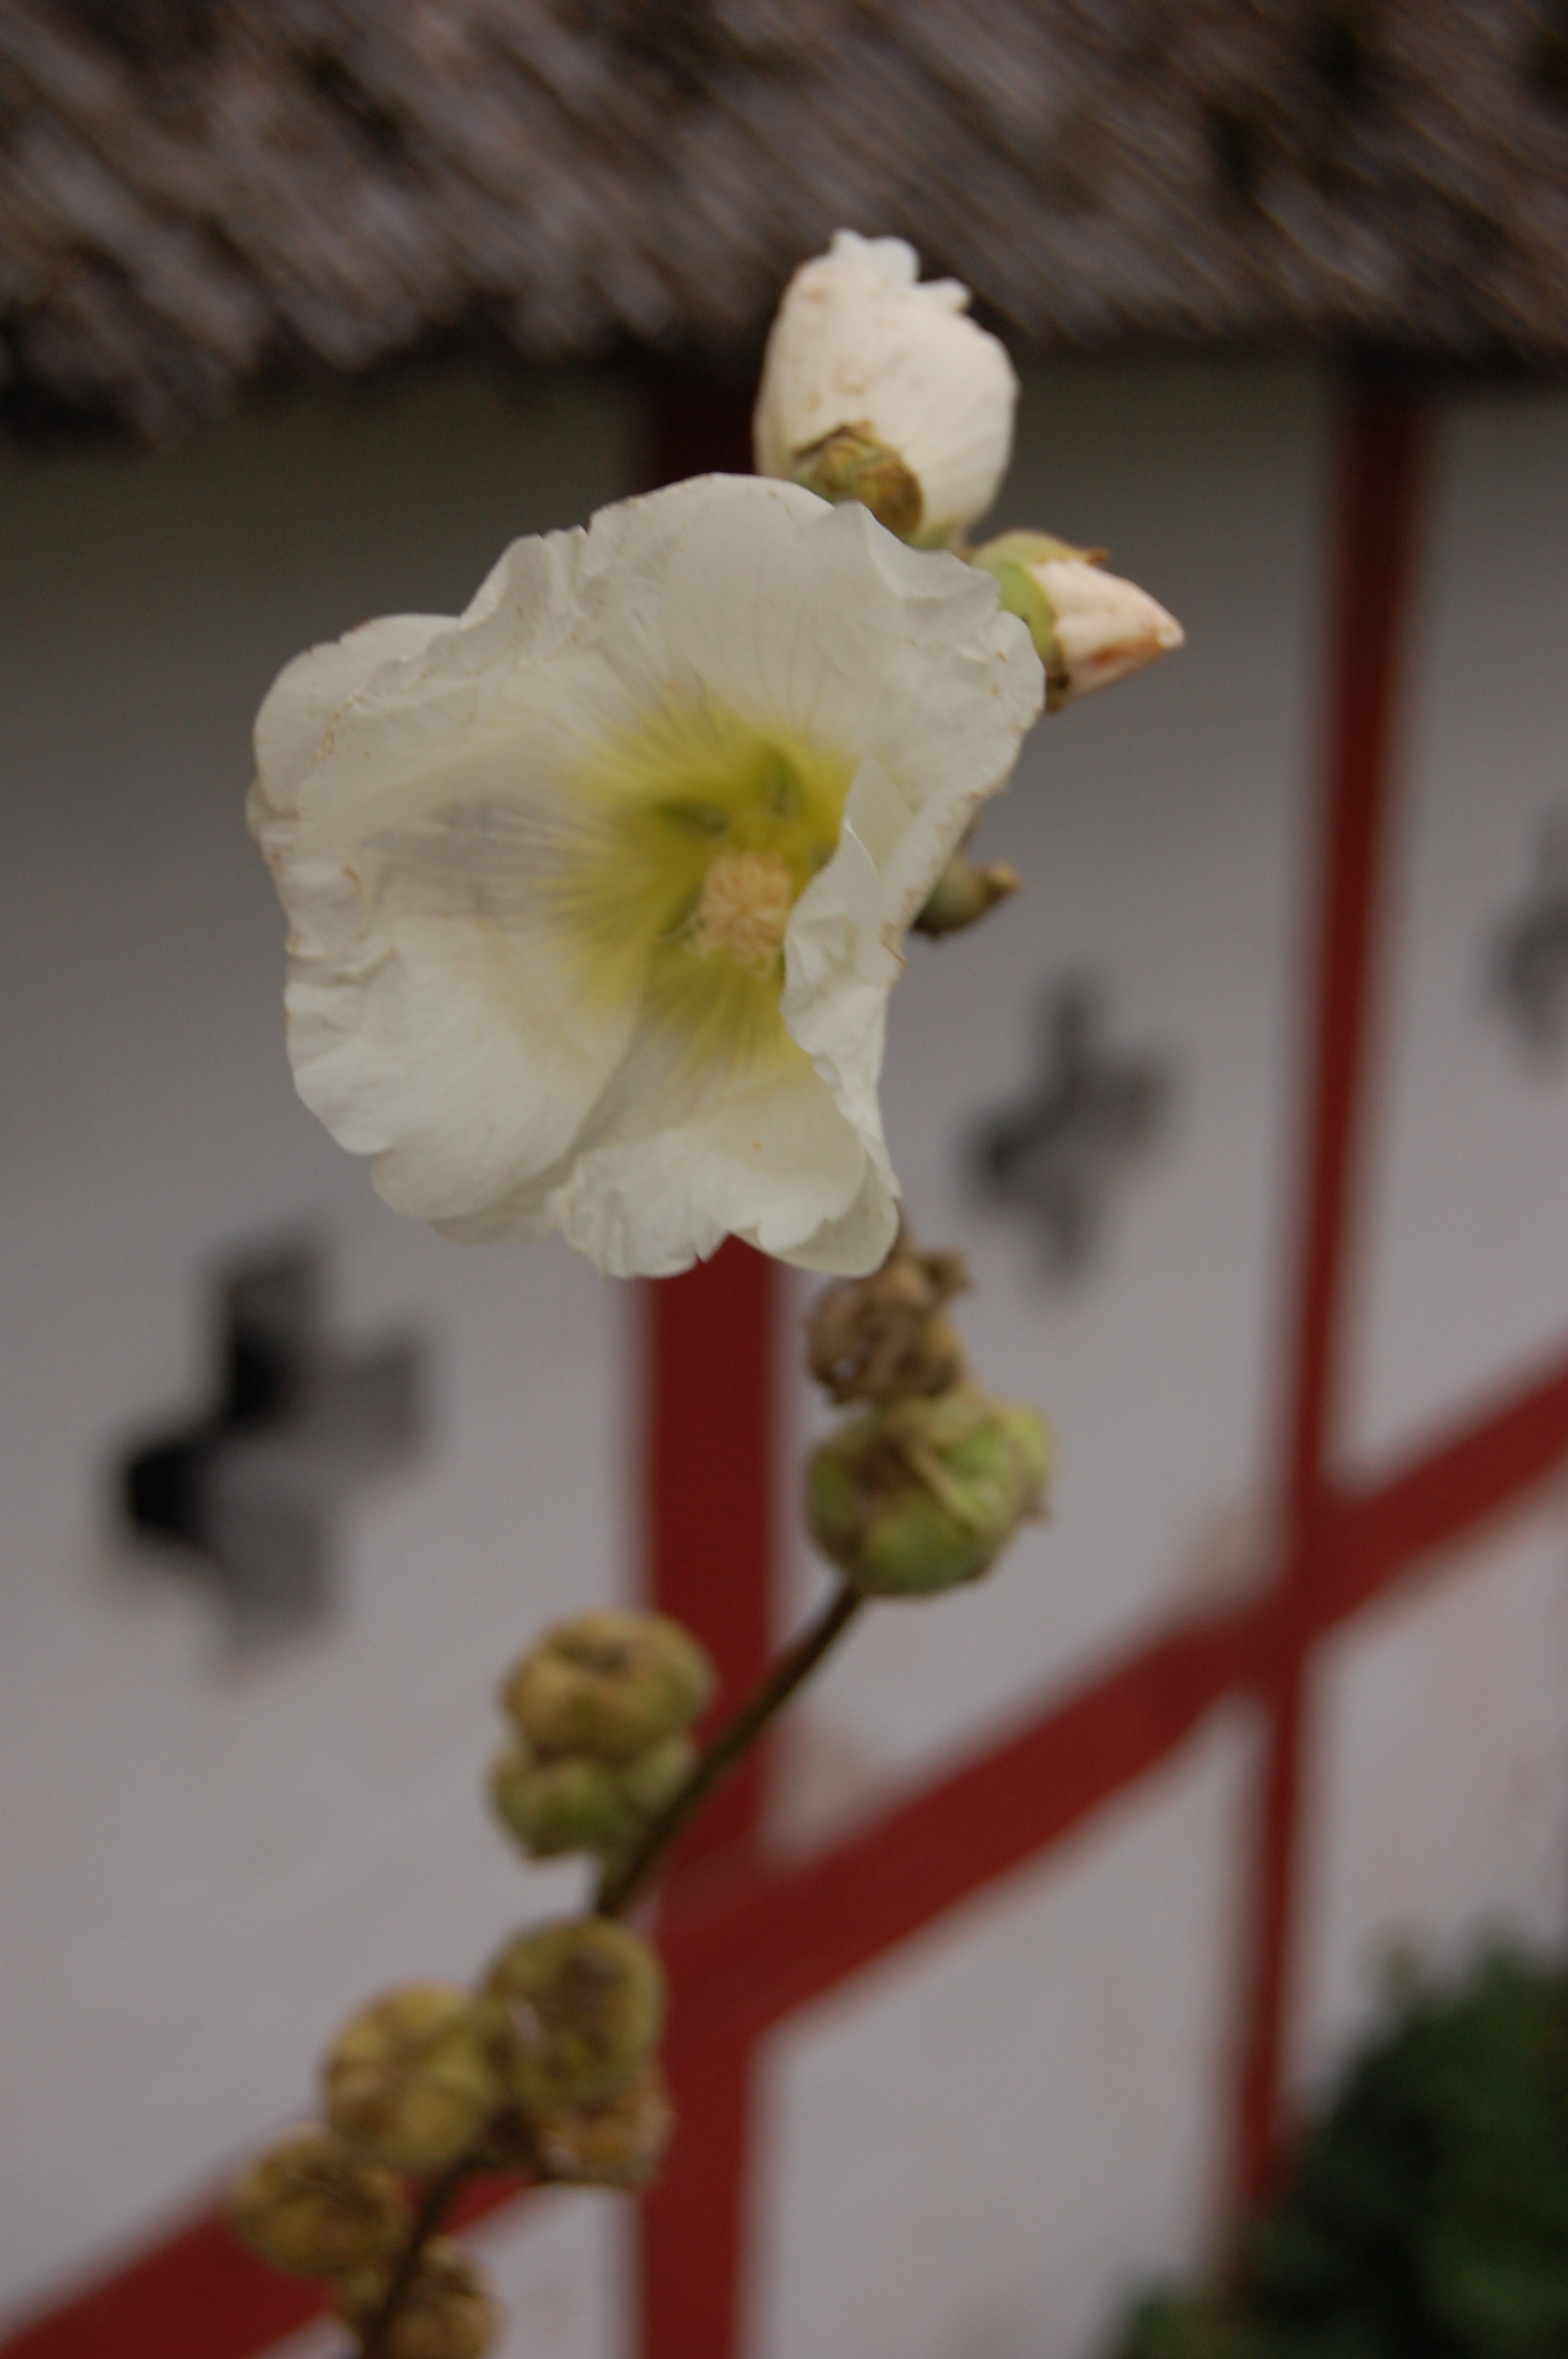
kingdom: Plantae
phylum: Tracheophyta
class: Magnoliopsida
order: Malvales
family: Malvaceae
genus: Alcea
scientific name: Alcea rosea
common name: Hollyhock
